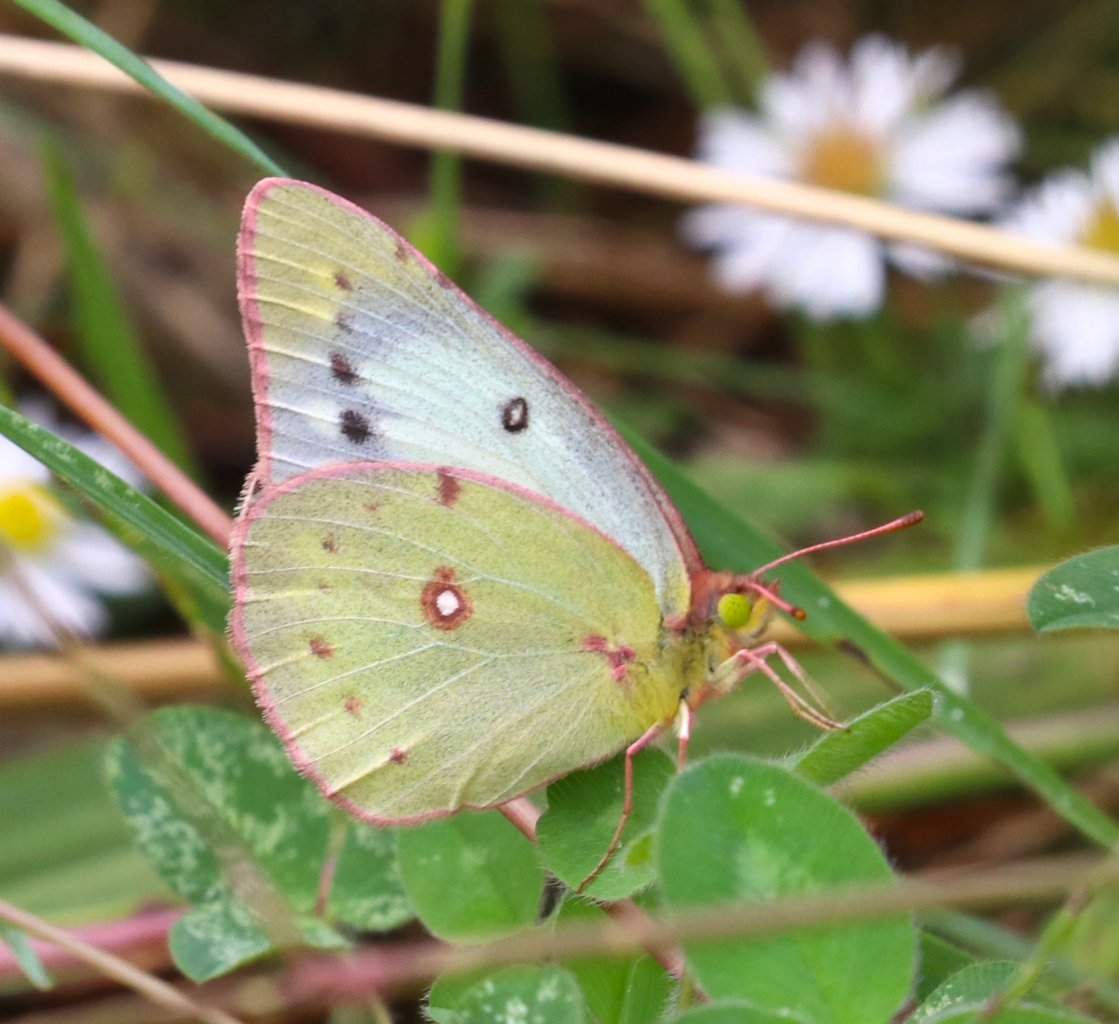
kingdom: Animalia
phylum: Arthropoda
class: Insecta
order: Lepidoptera
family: Pieridae
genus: Colias
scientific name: Colias
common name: Clouded Yellows
